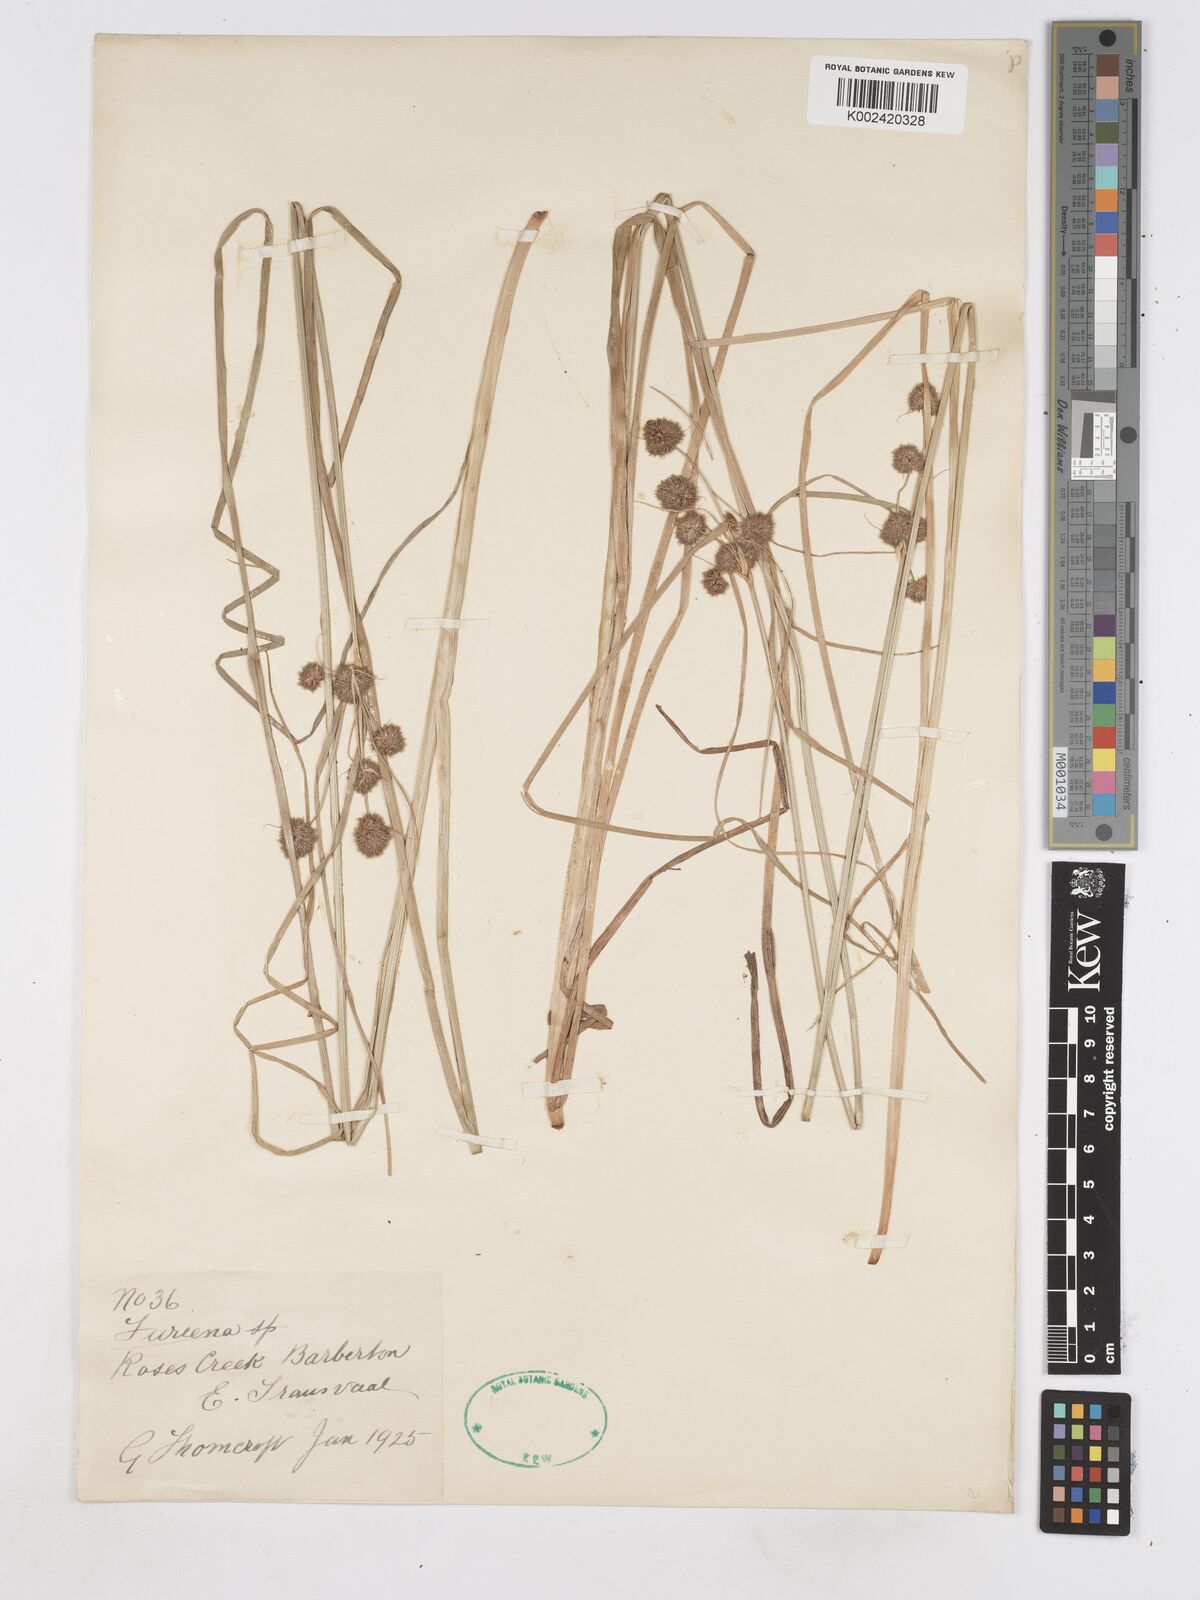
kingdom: Plantae
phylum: Tracheophyta
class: Liliopsida
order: Poales
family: Cyperaceae
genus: Fuirena
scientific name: Fuirena
